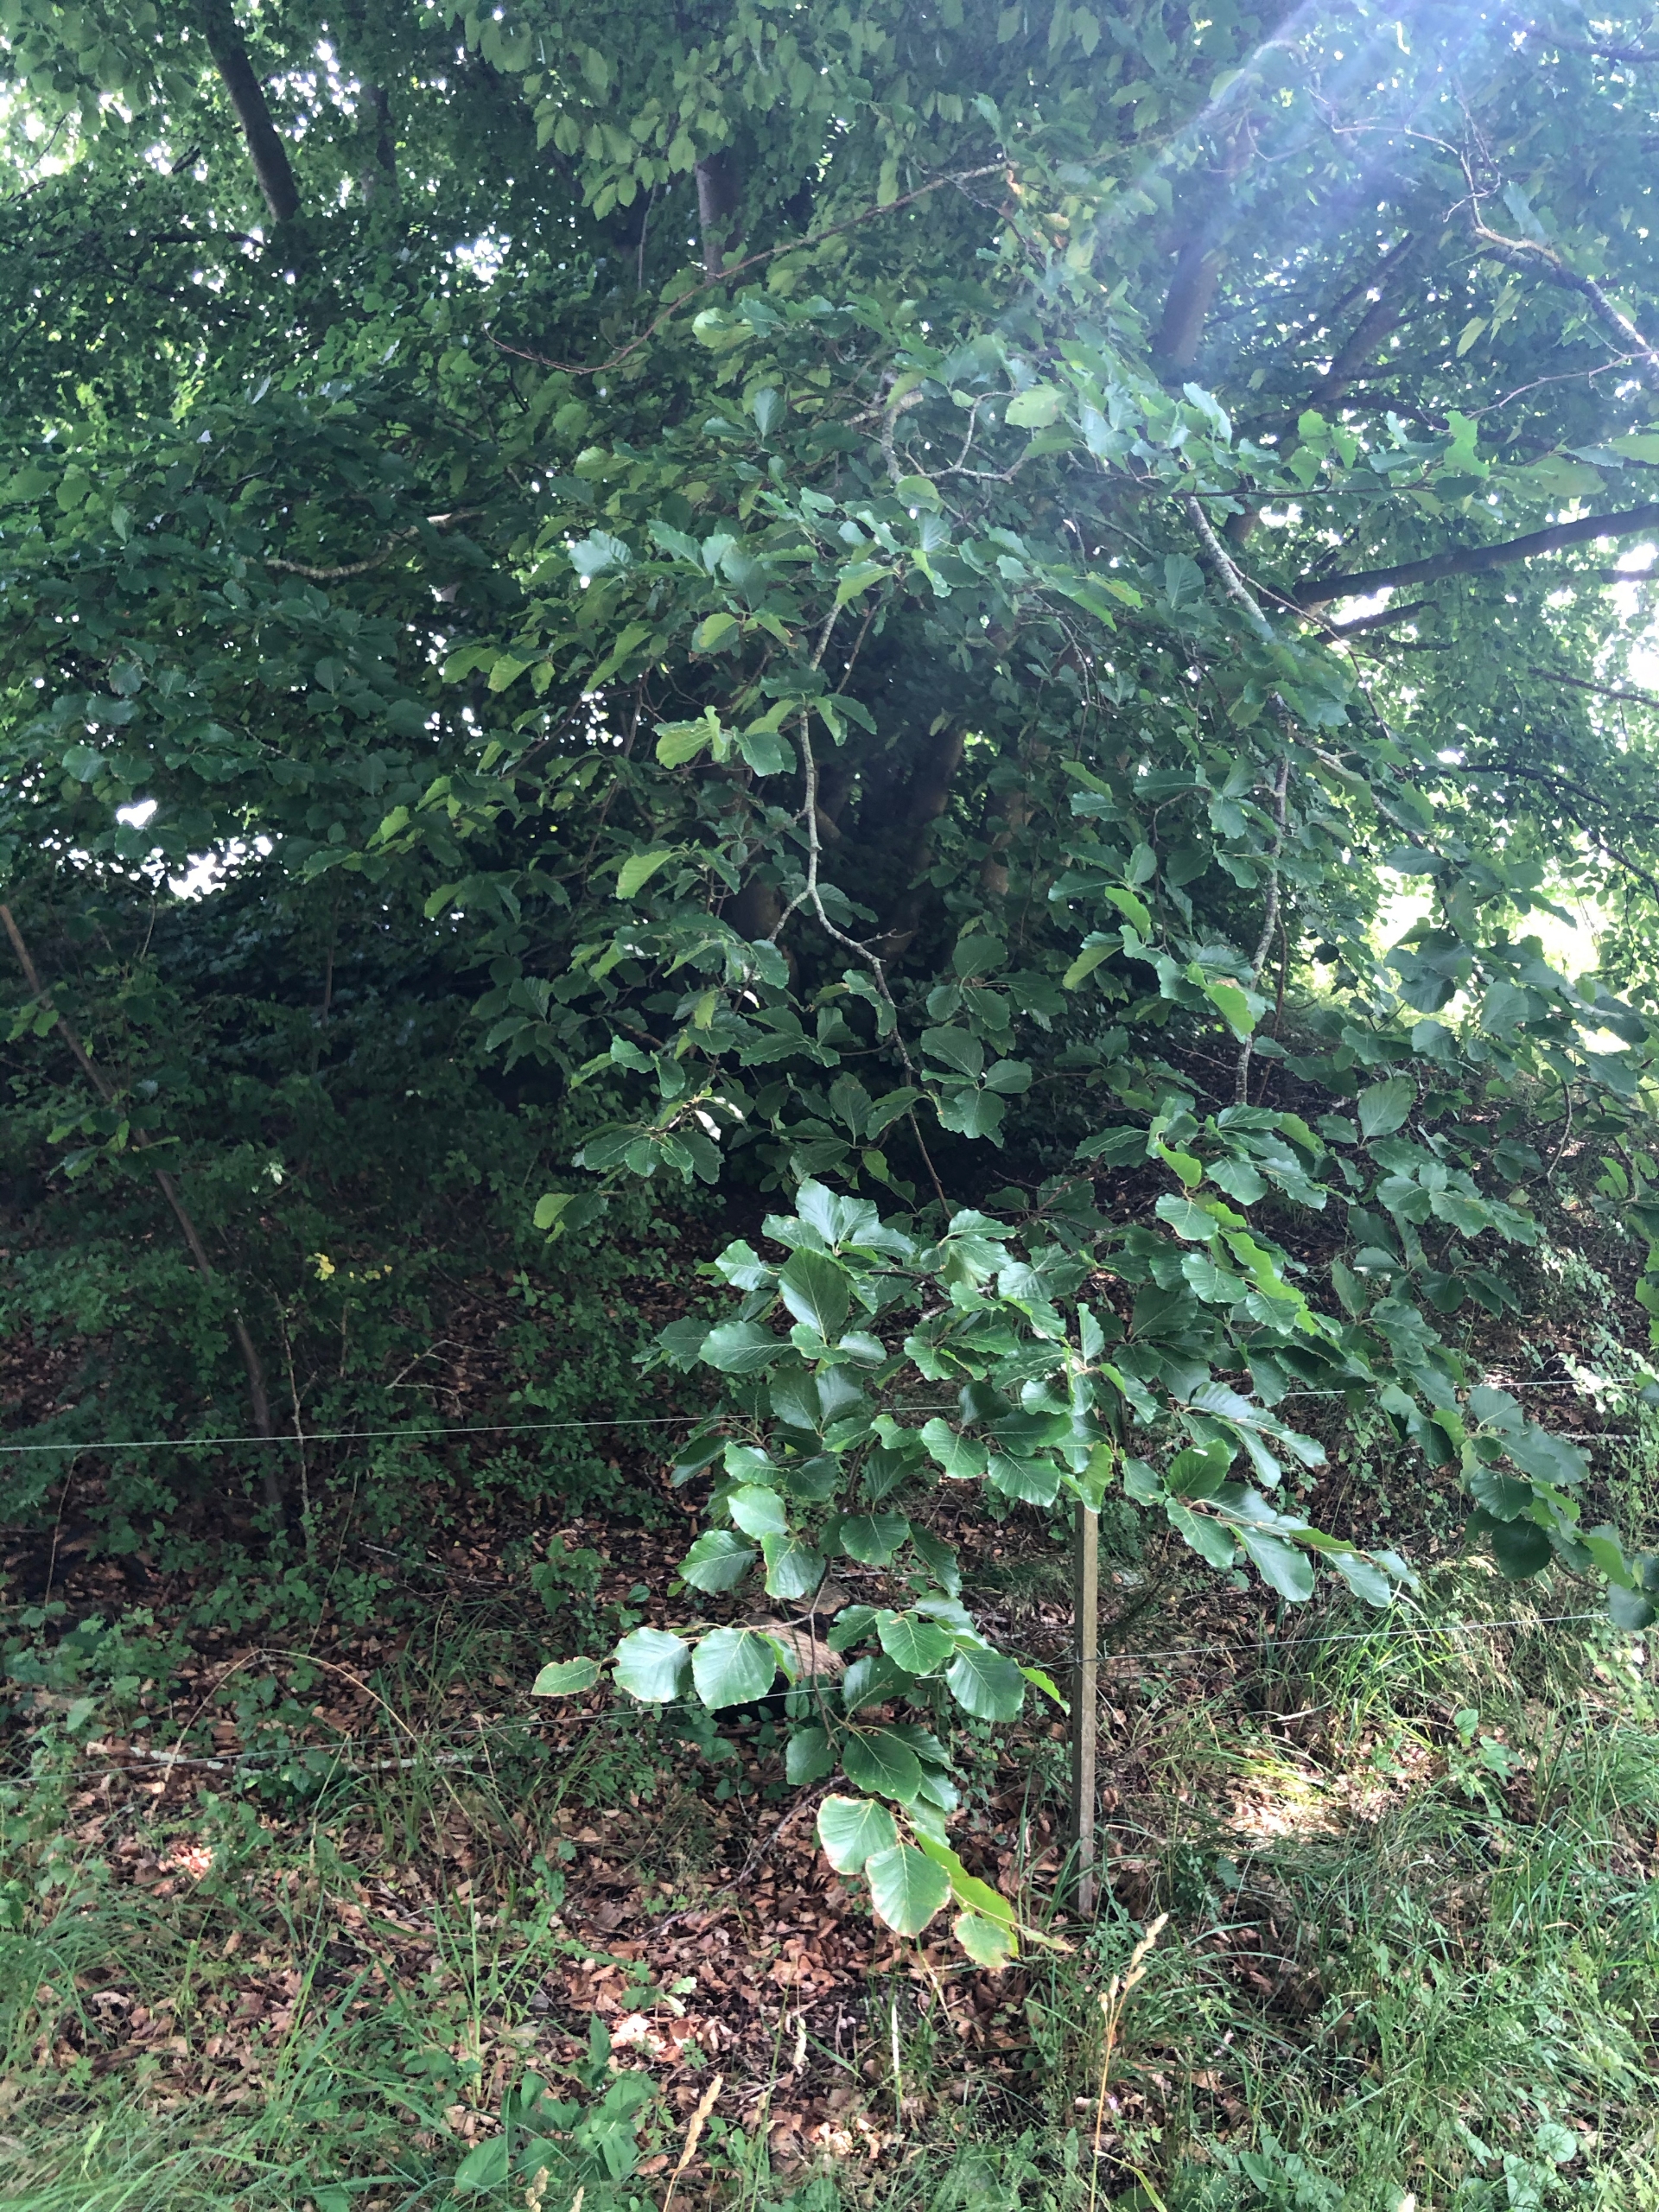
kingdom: Plantae
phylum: Tracheophyta
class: Magnoliopsida
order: Fagales
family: Fagaceae
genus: Fagus
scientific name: Fagus sylvatica
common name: Bøg
